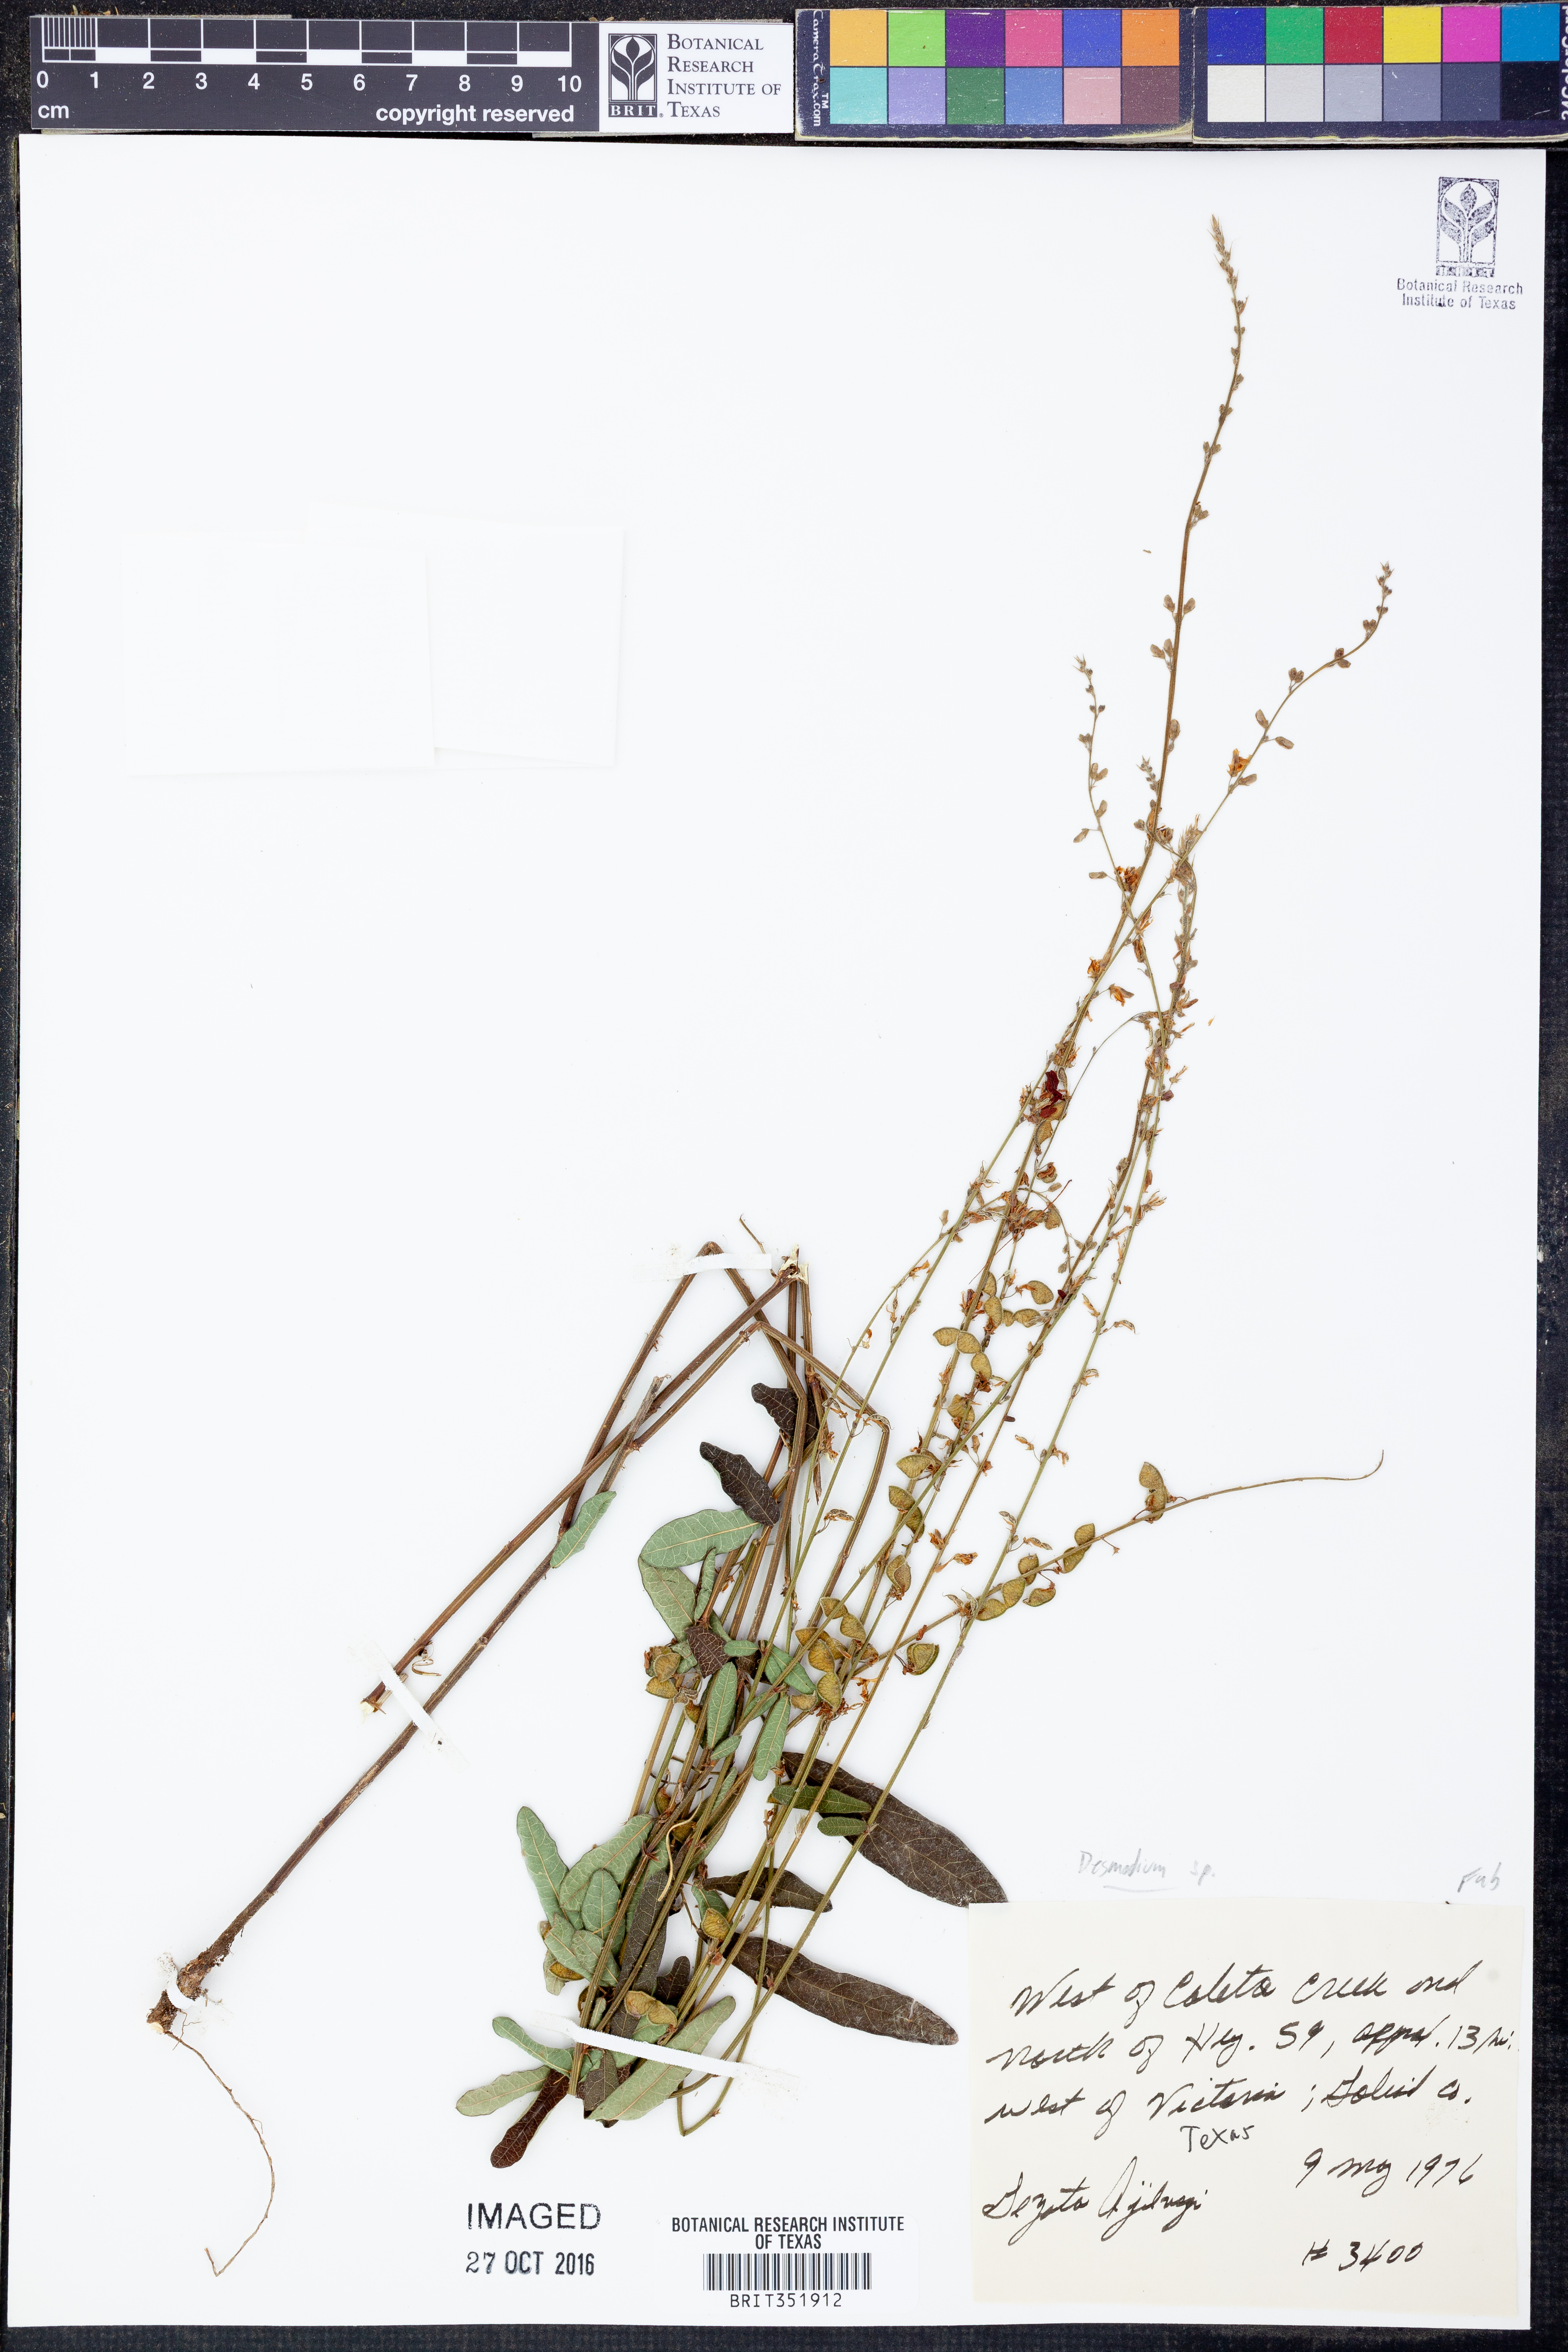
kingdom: Plantae
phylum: Tracheophyta
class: Magnoliopsida
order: Fabales
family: Fabaceae
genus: Desmodium
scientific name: Desmodium
